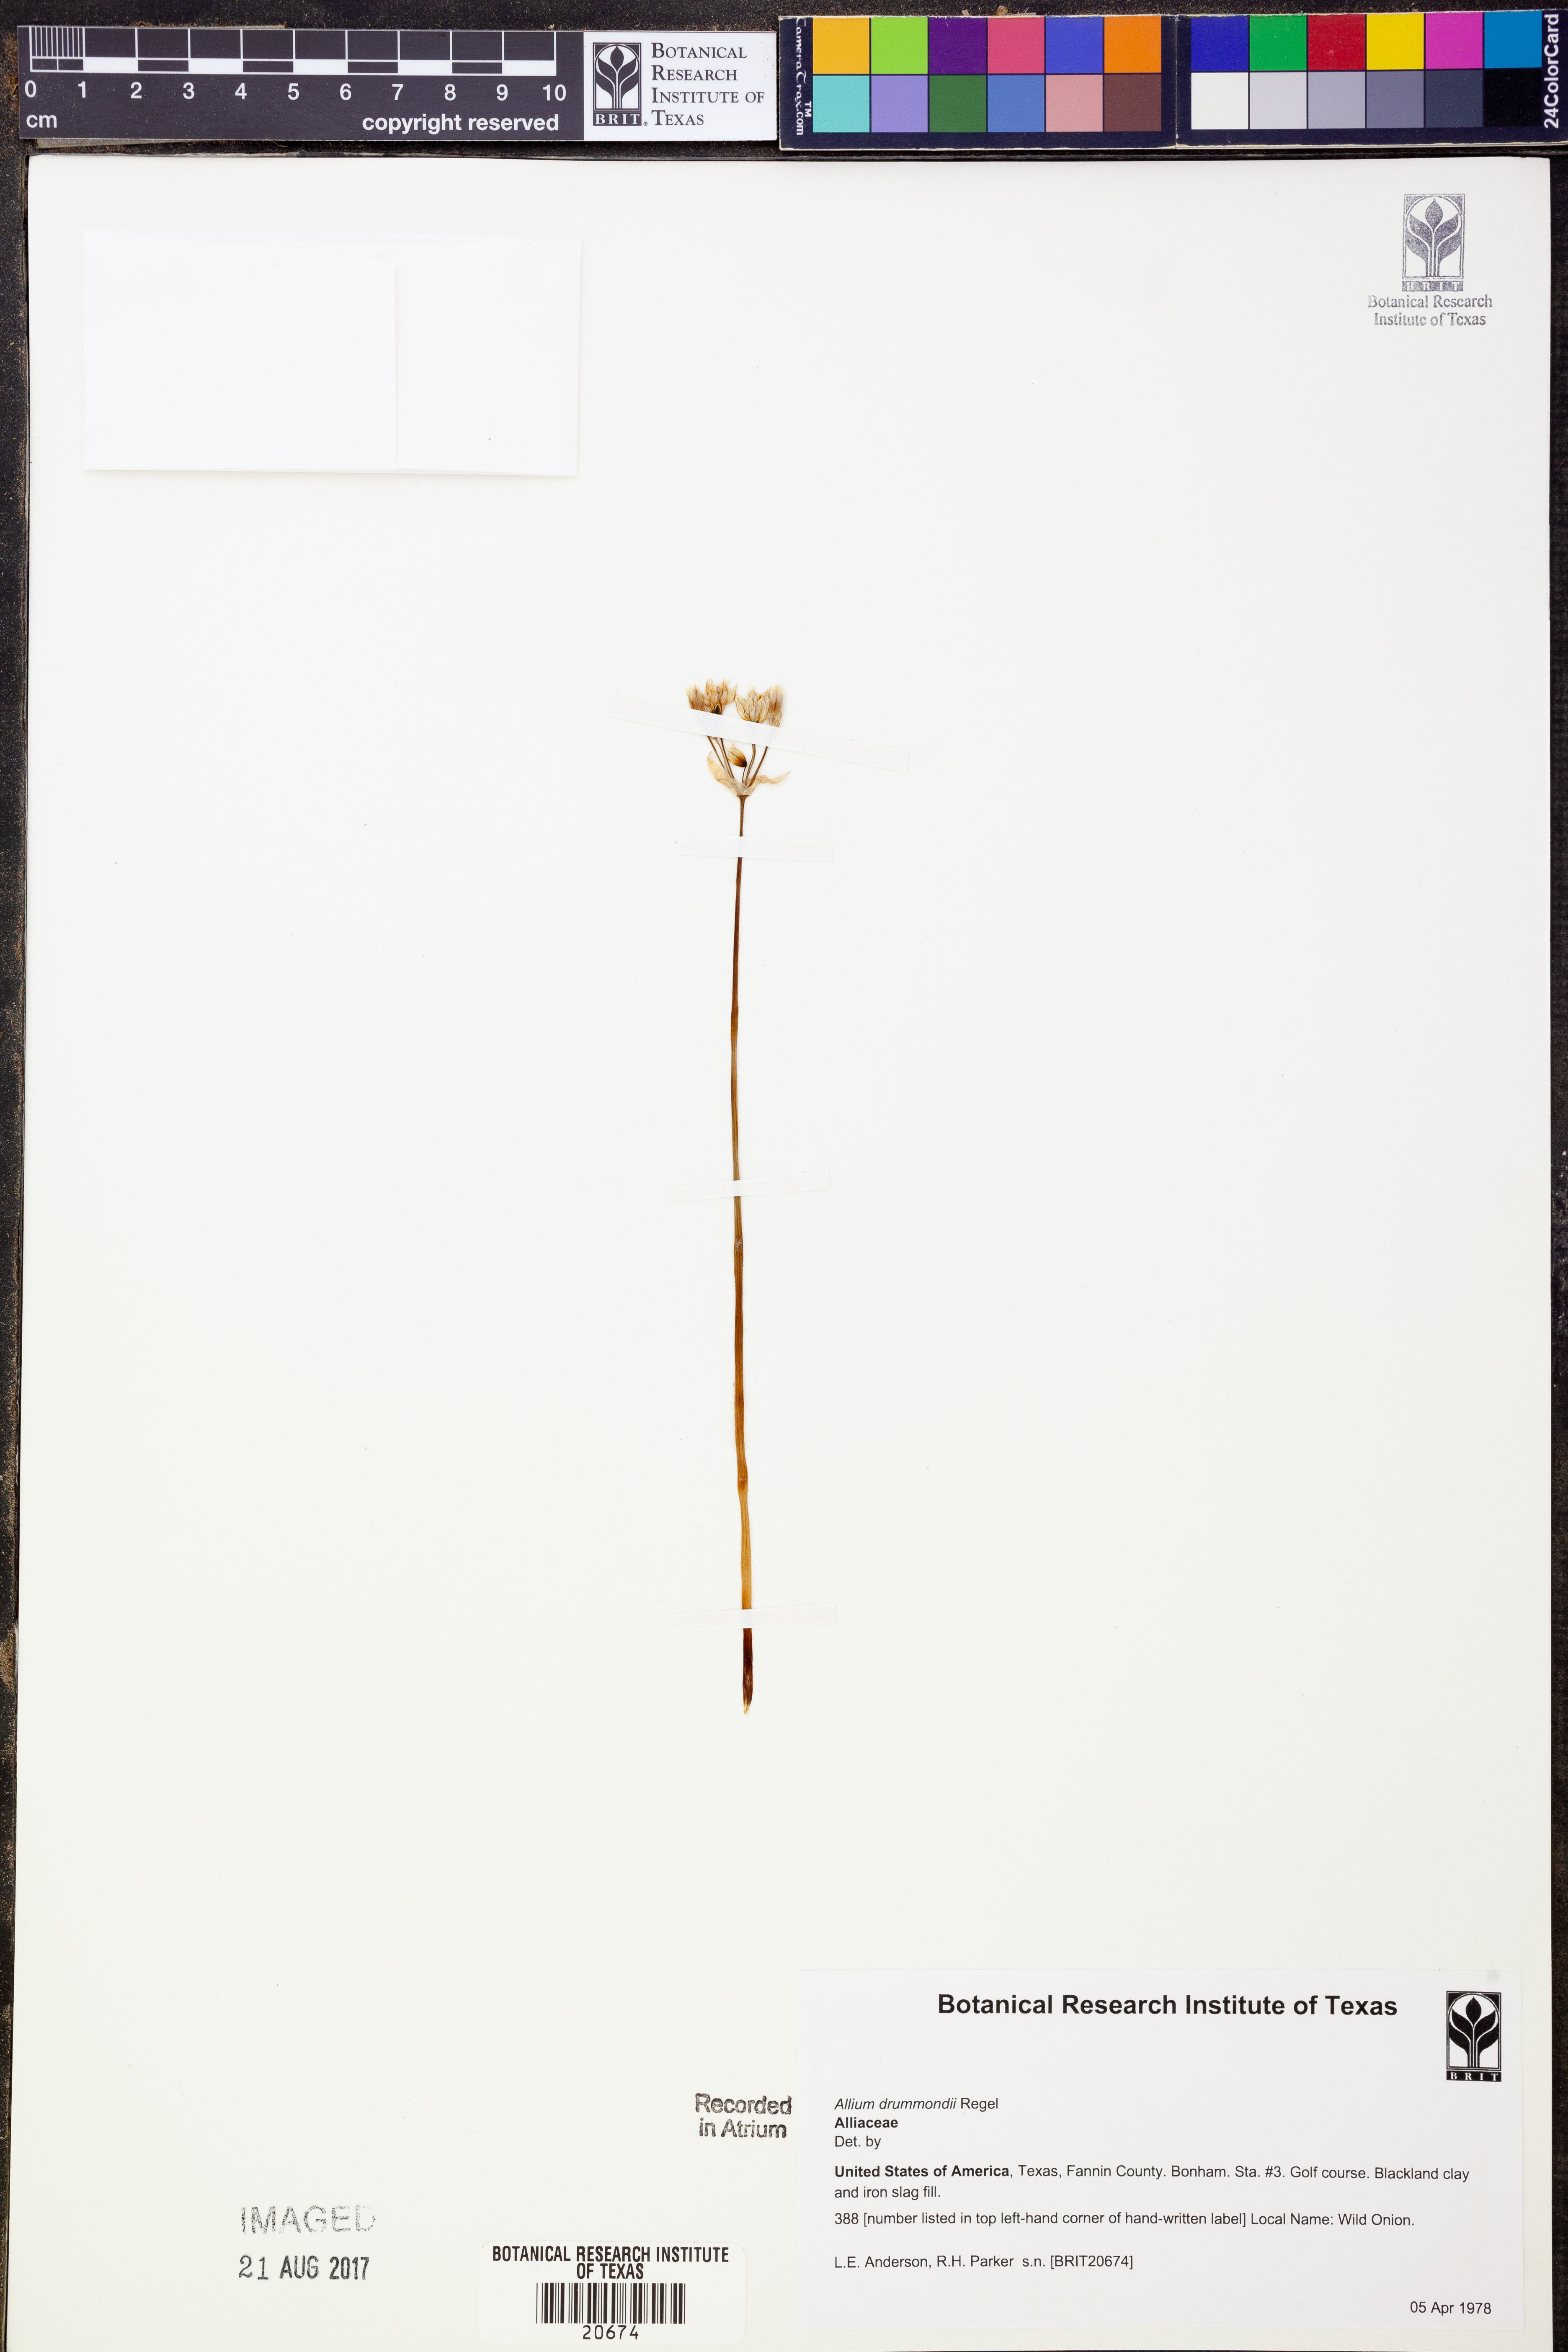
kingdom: Plantae
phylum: Tracheophyta
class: Liliopsida
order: Asparagales
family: Amaryllidaceae
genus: Allium
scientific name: Allium drummondii
